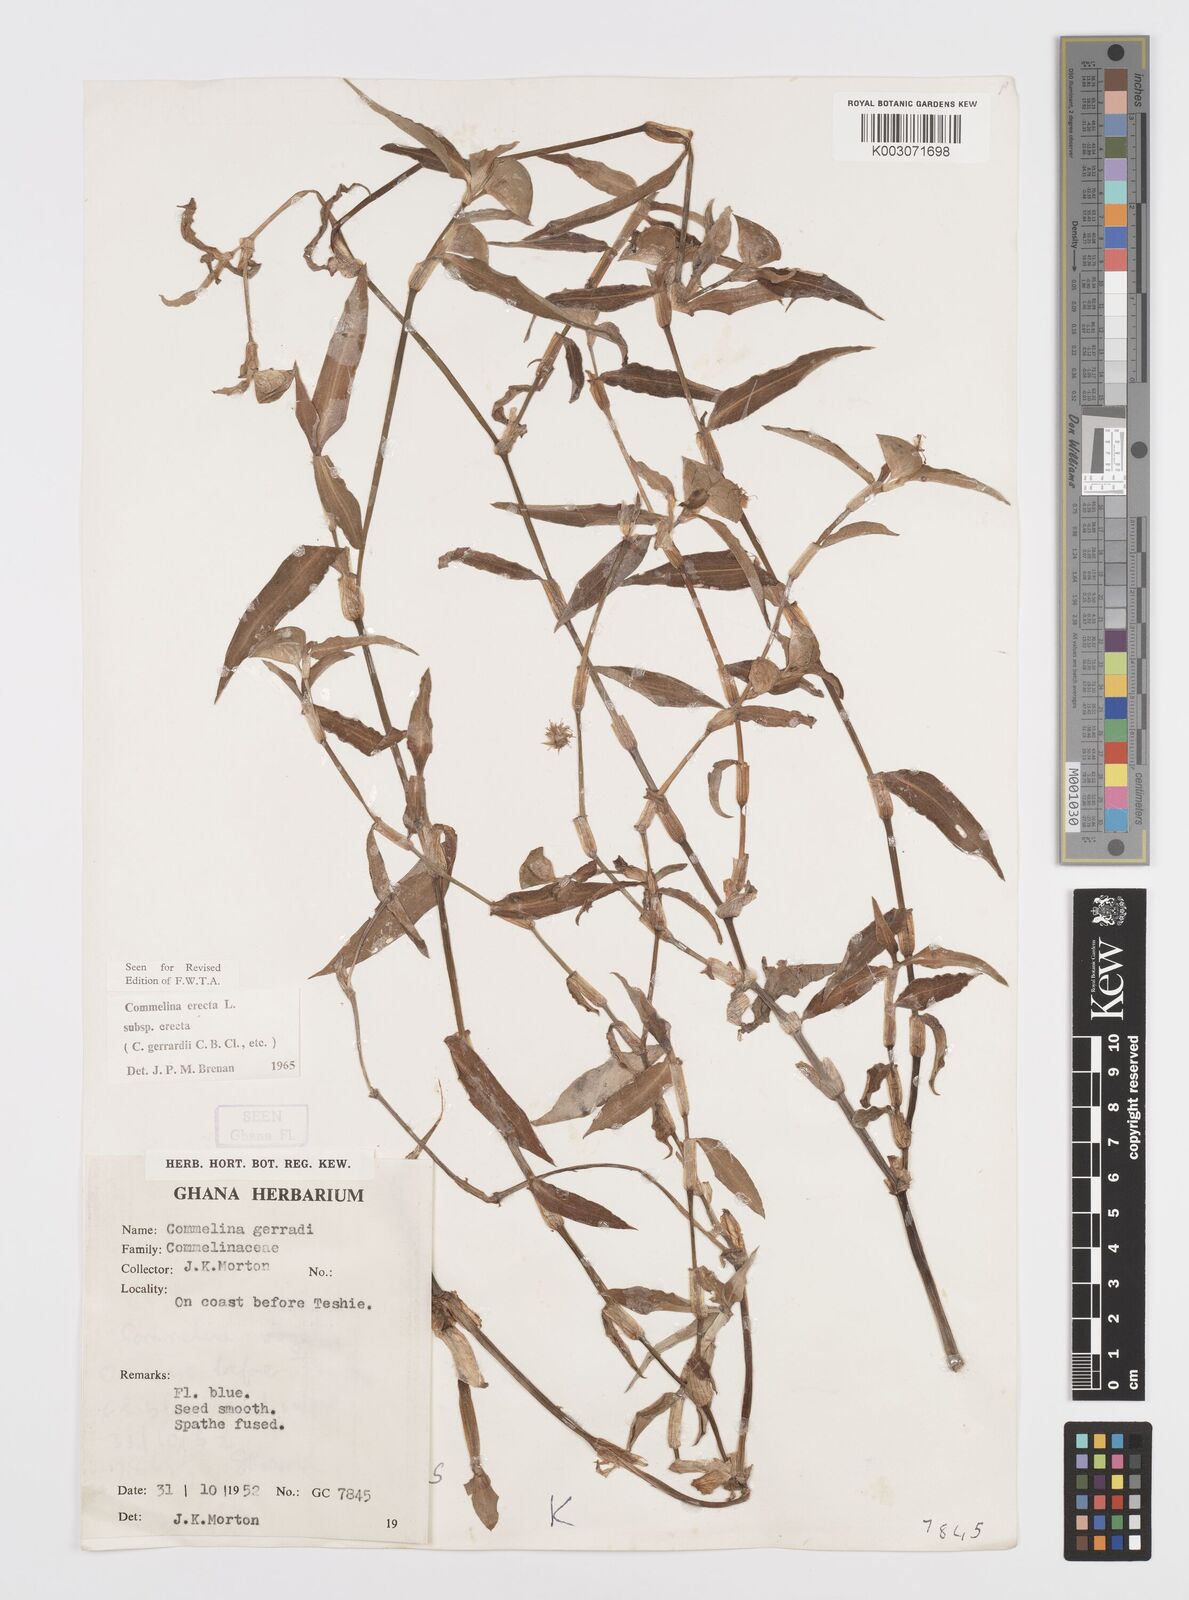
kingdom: Plantae
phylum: Tracheophyta
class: Liliopsida
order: Commelinales
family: Commelinaceae
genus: Commelina
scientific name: Commelina erecta
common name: Blousel blommetjie
